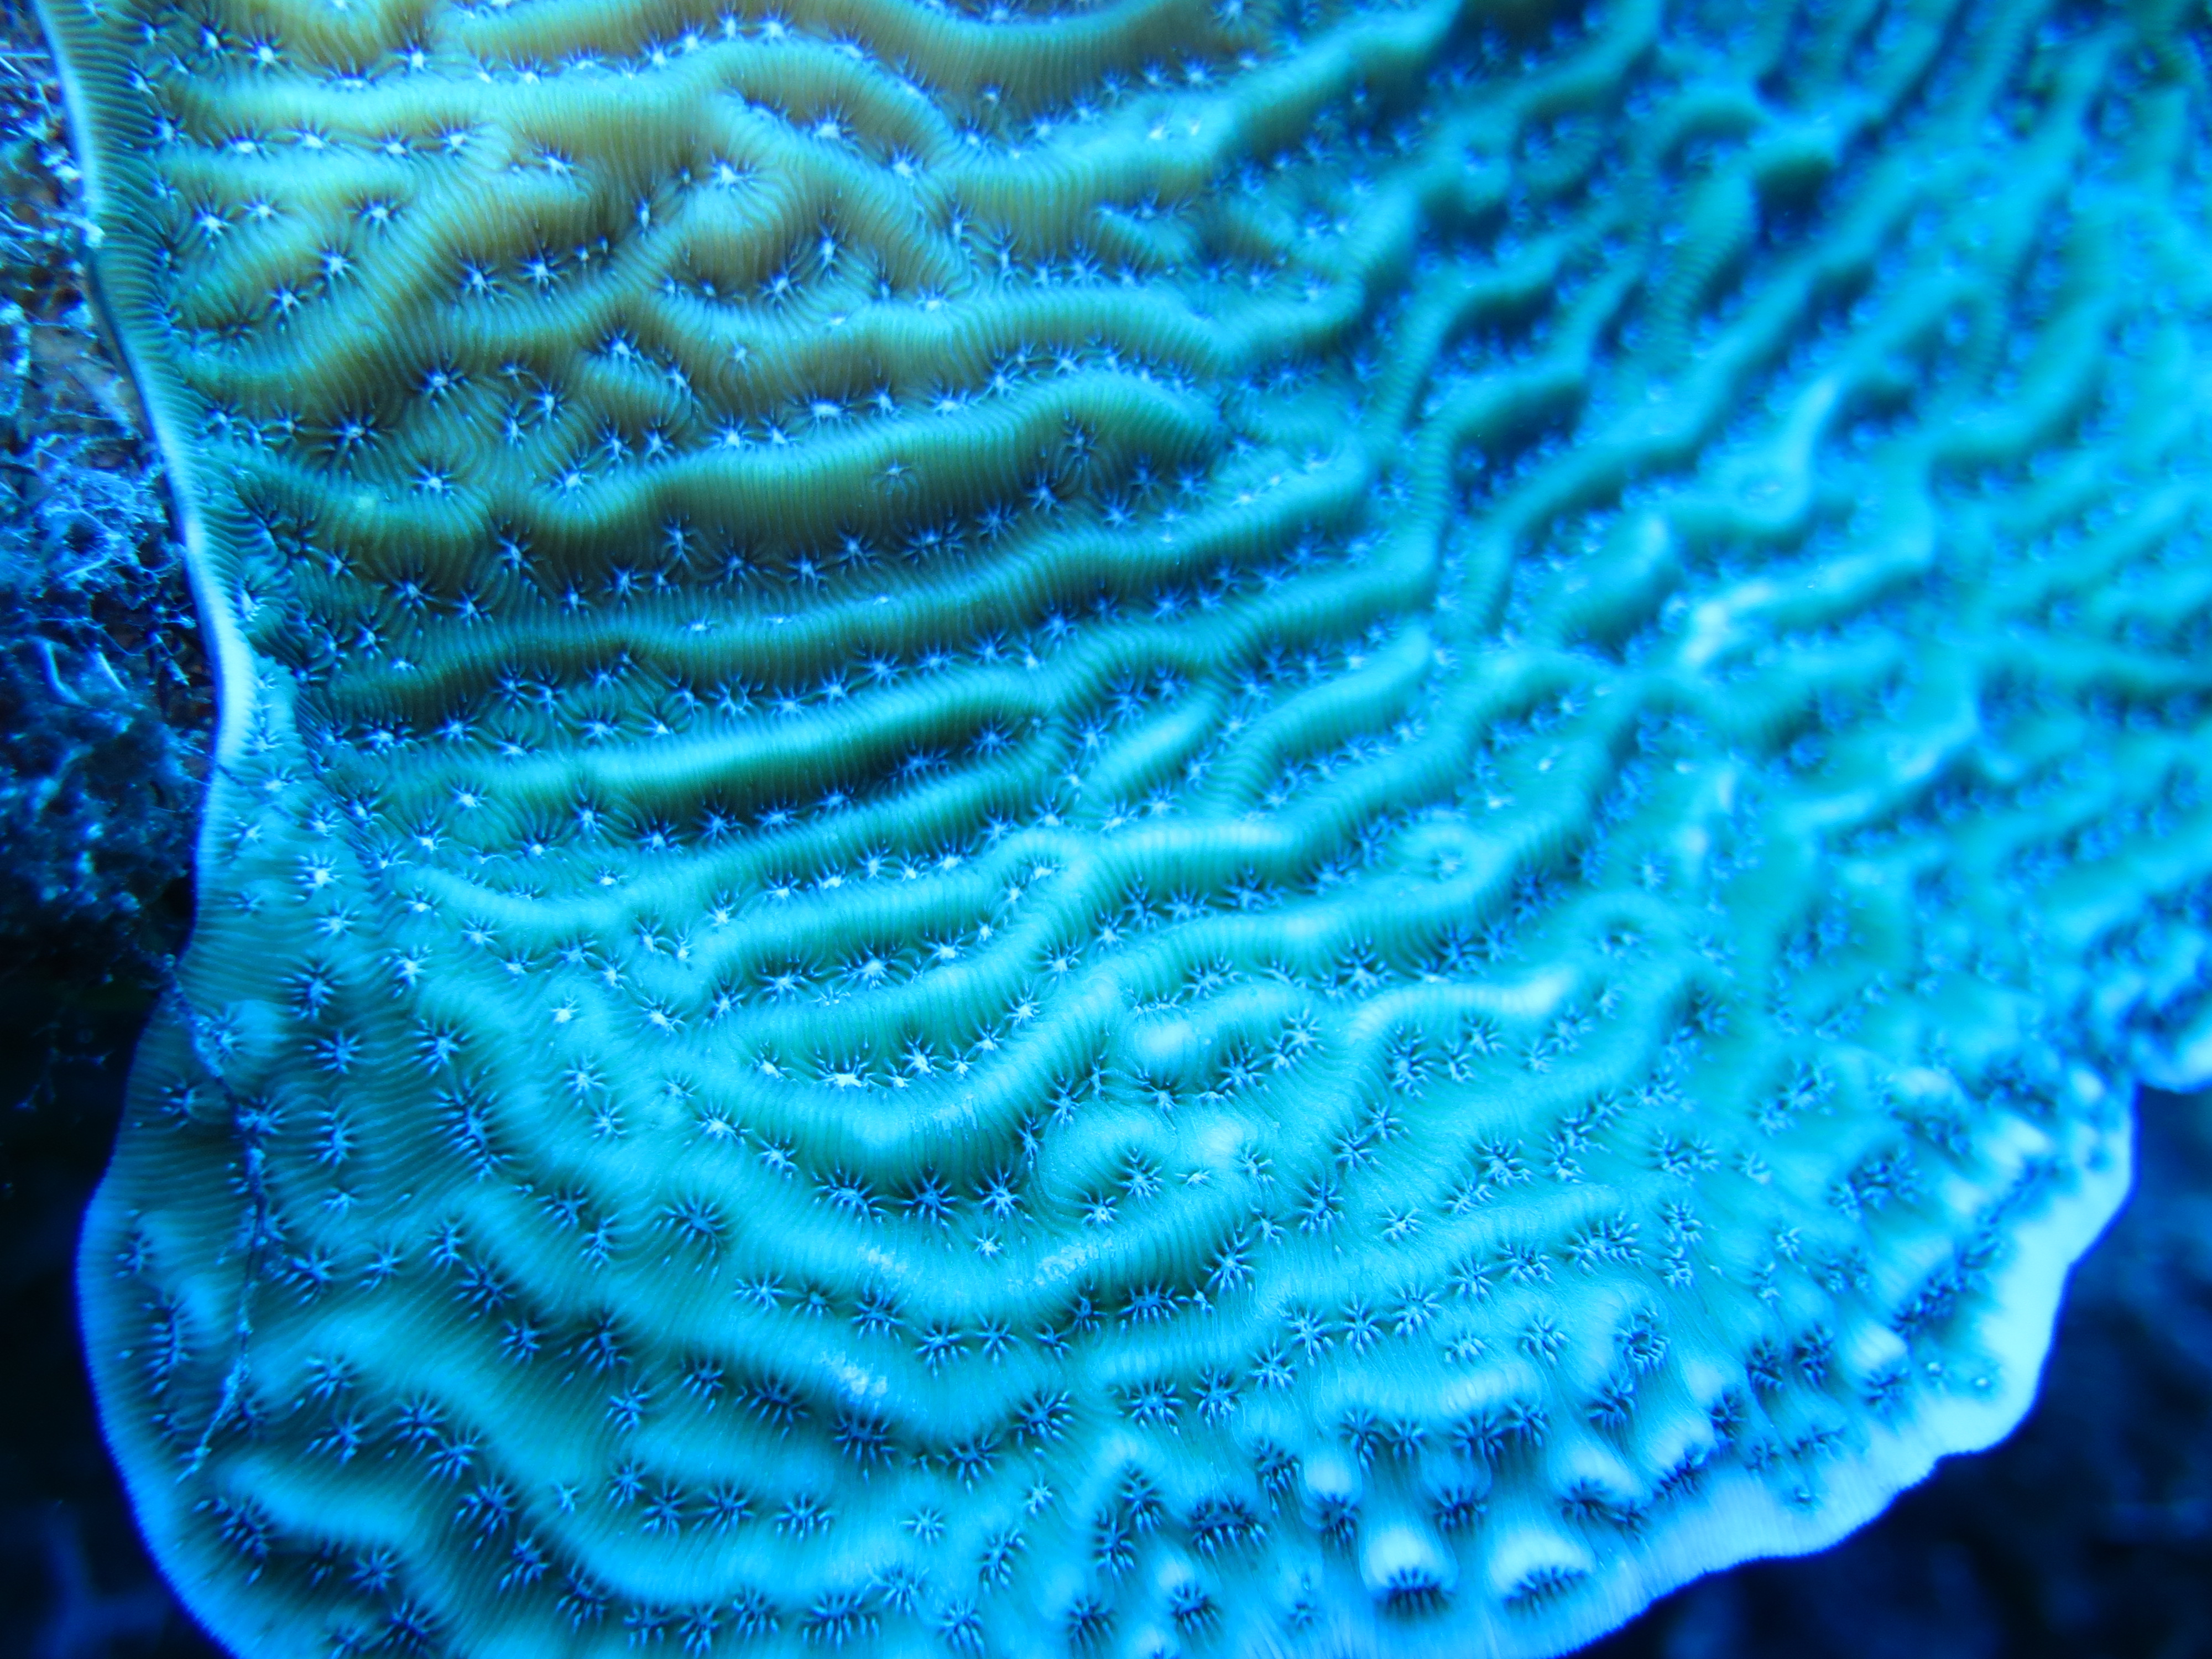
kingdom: Animalia
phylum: Cnidaria
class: Anthozoa
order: Scleractinia
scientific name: Scleractinia
